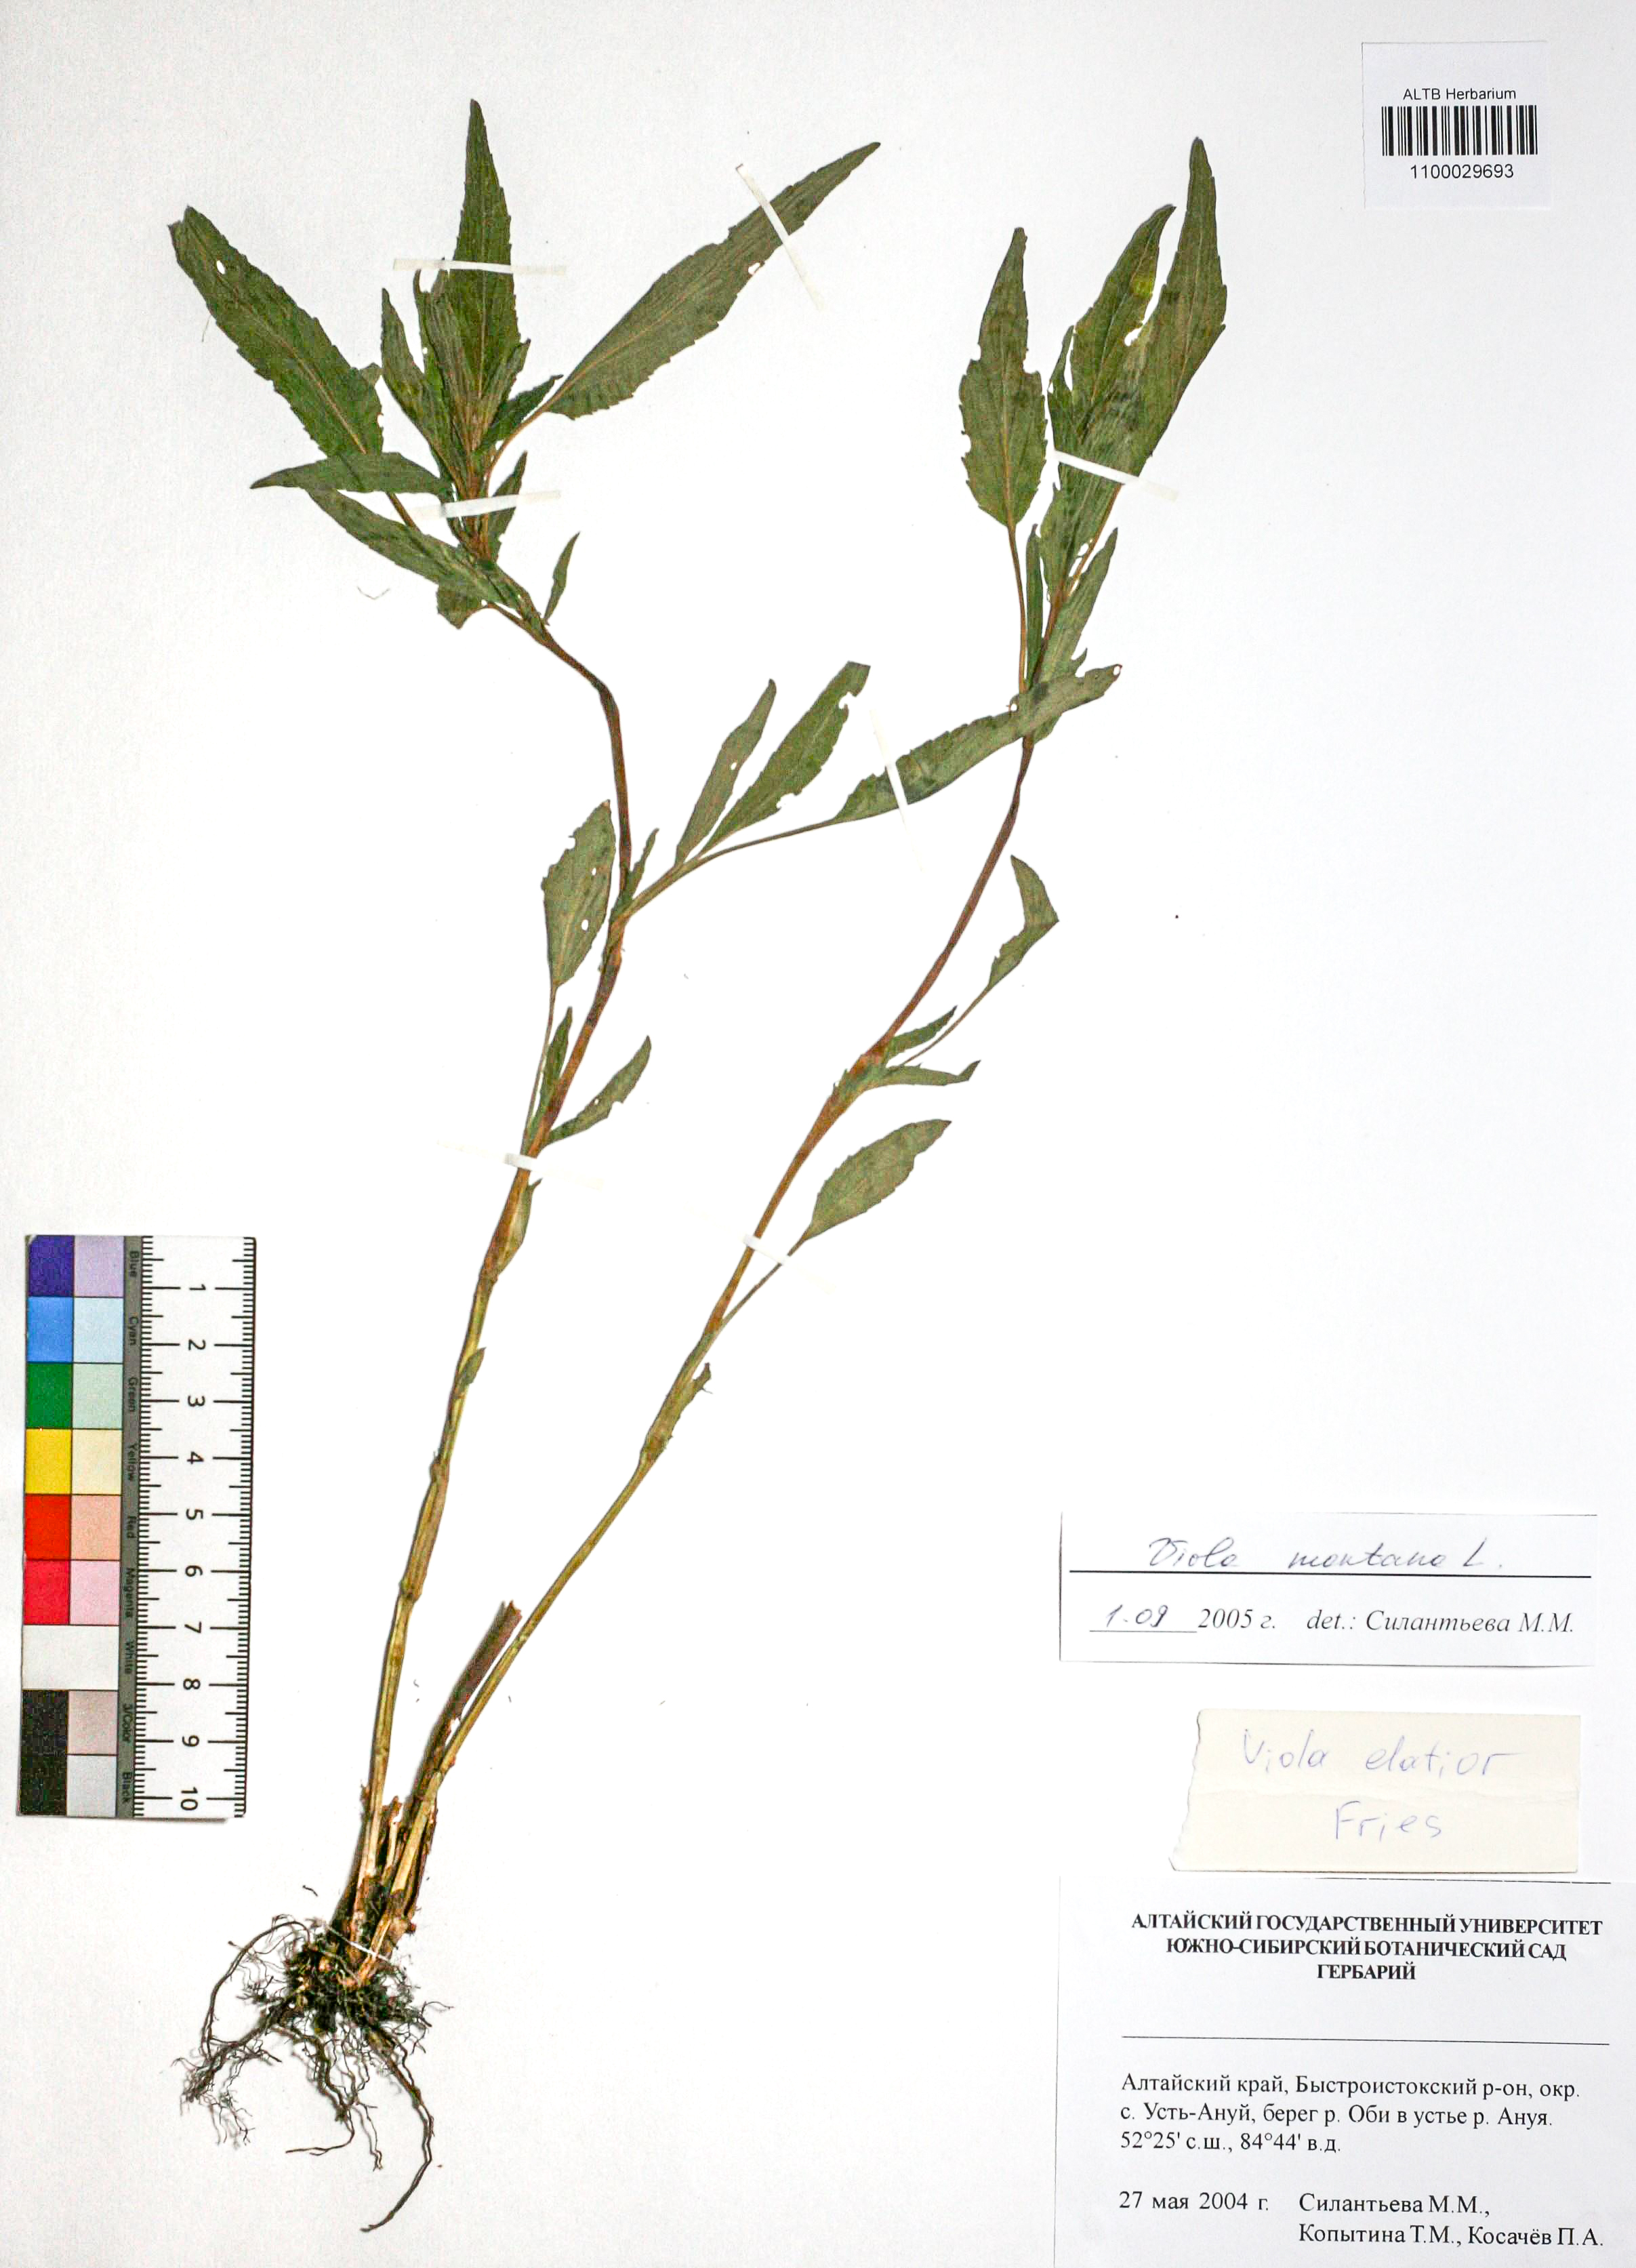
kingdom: Plantae
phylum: Tracheophyta
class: Magnoliopsida
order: Malpighiales
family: Violaceae
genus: Viola
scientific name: Viola ruppii
